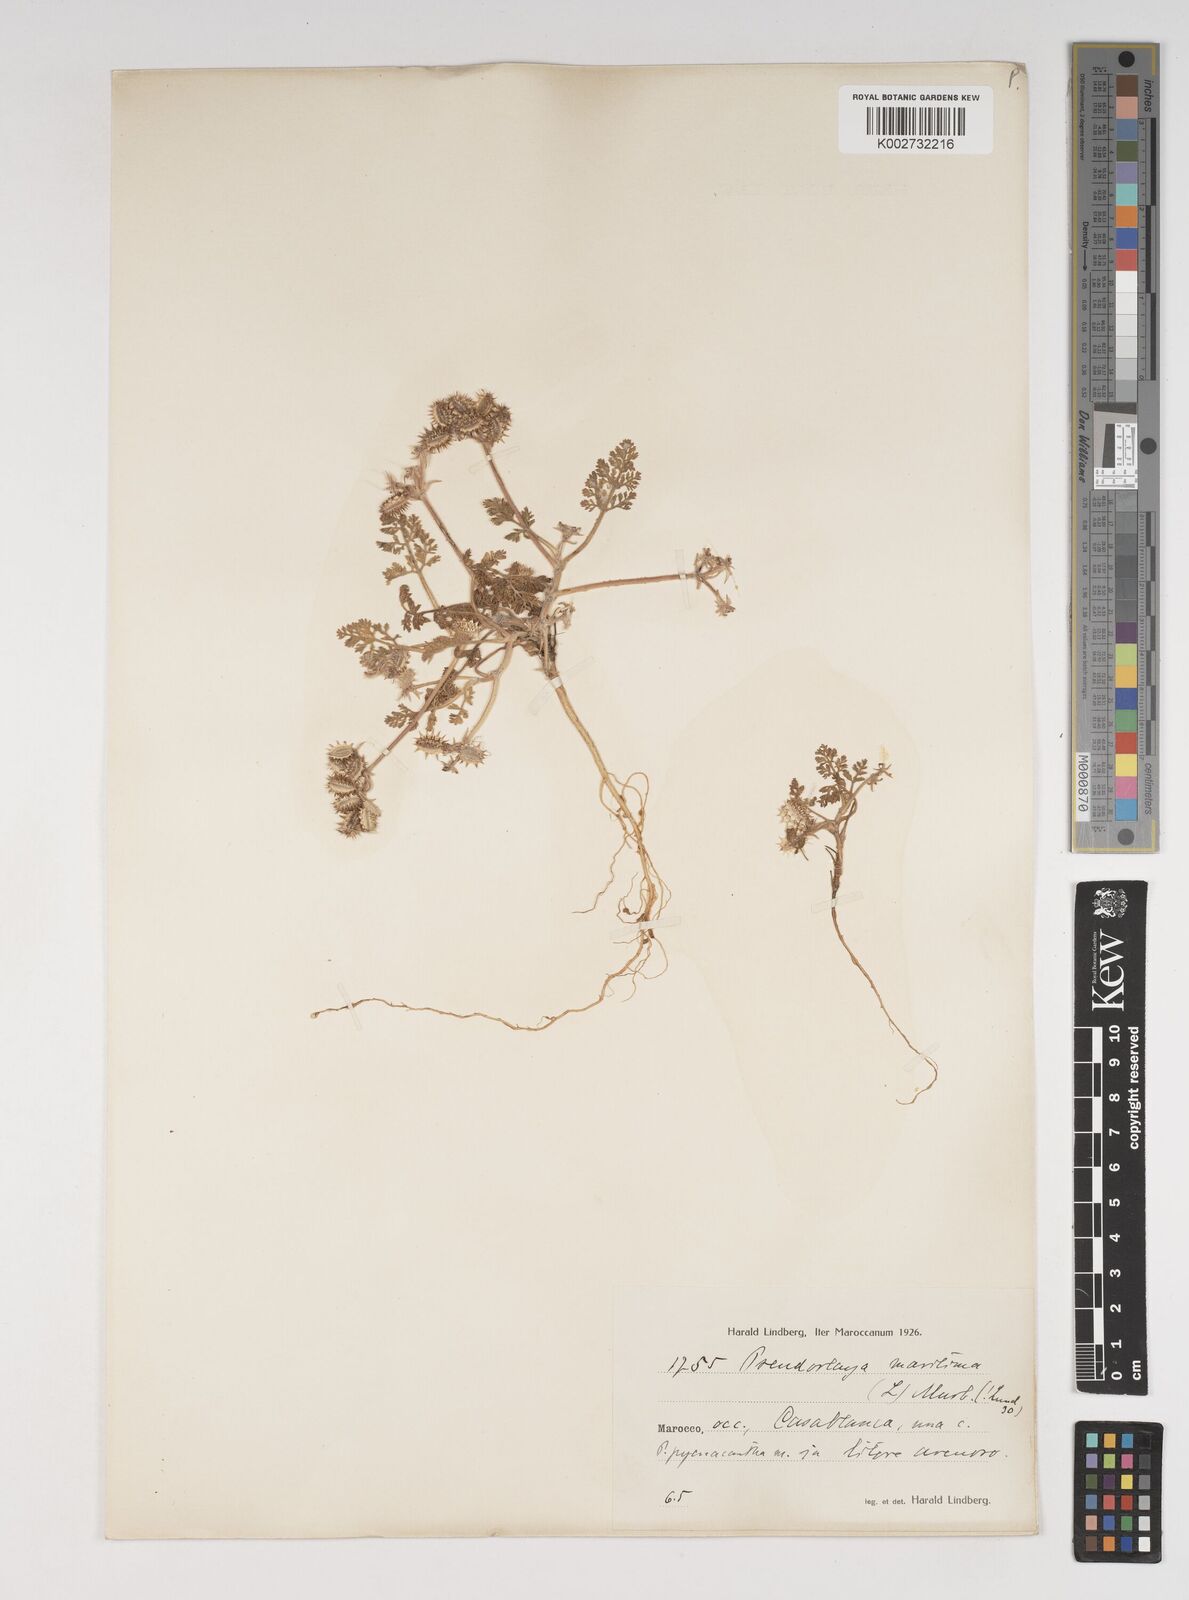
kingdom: Plantae
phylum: Tracheophyta
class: Magnoliopsida
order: Apiales
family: Apiaceae
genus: Daucus
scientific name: Daucus pumilus
